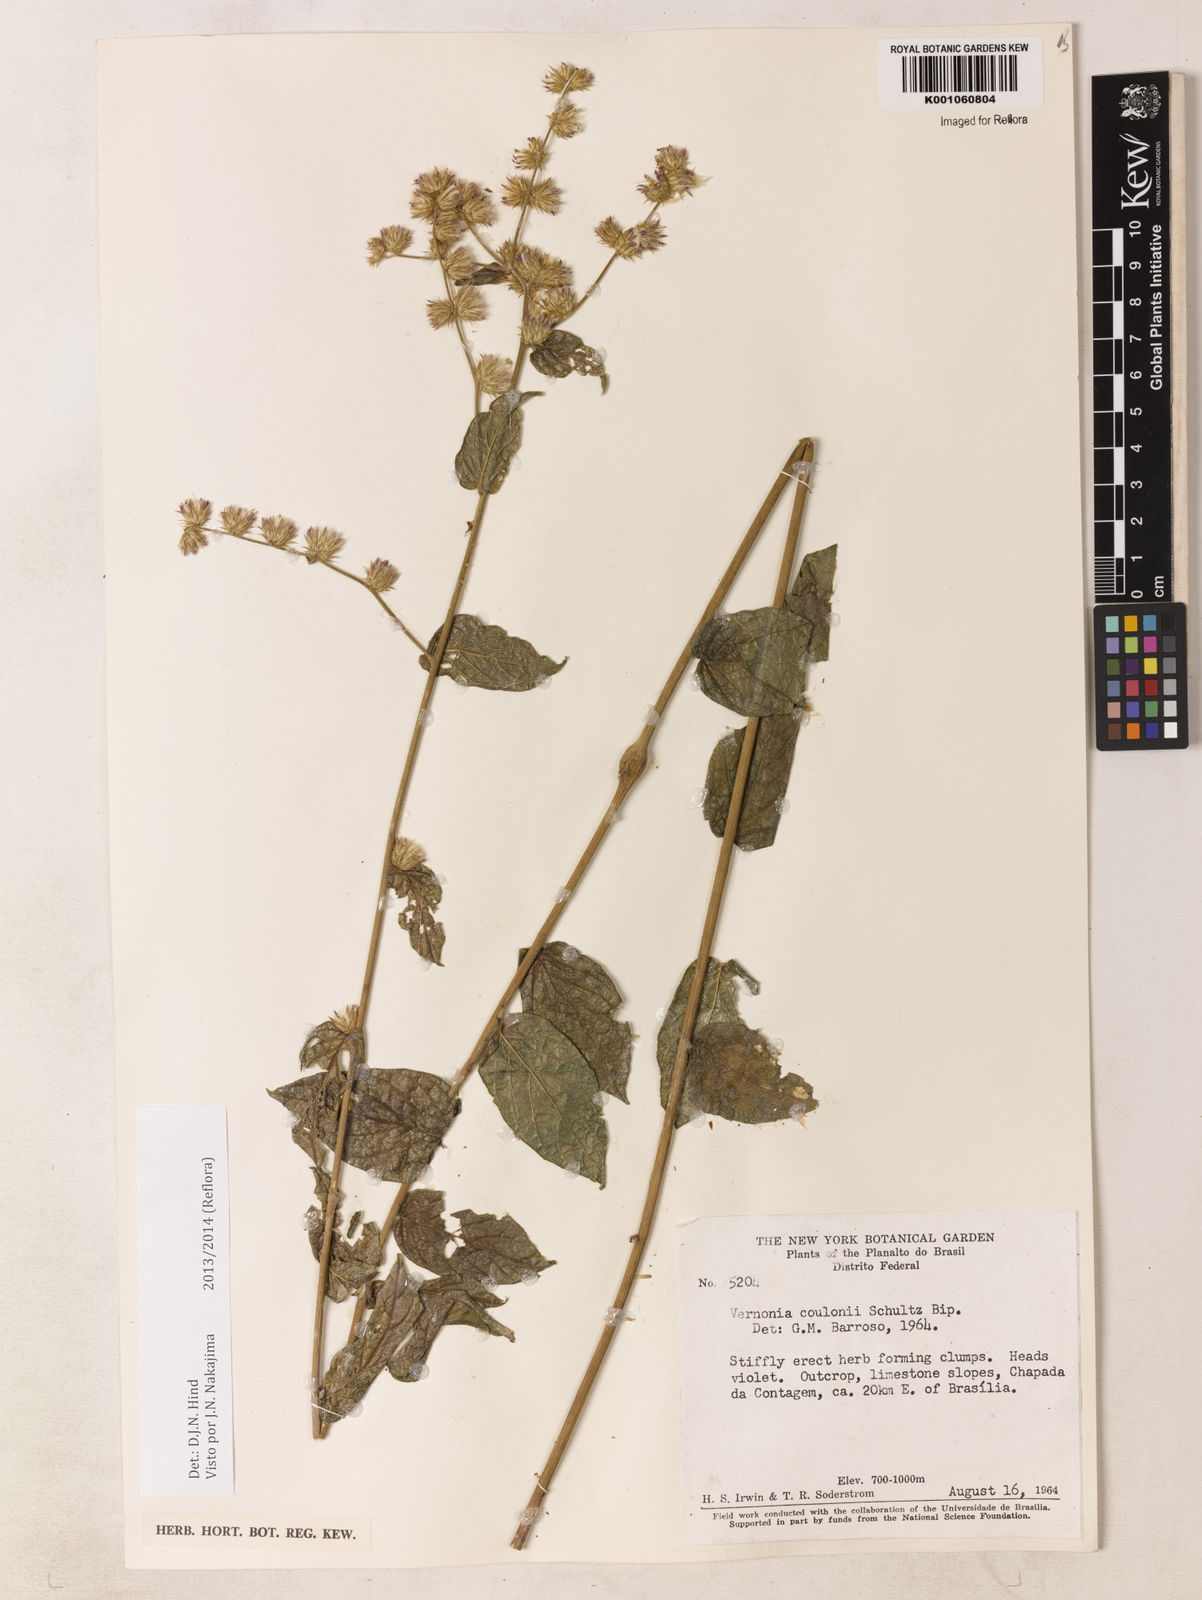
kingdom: Plantae
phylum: Tracheophyta
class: Magnoliopsida
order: Asterales
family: Asteraceae
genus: Lepidaploa
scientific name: Lepidaploa sororia
